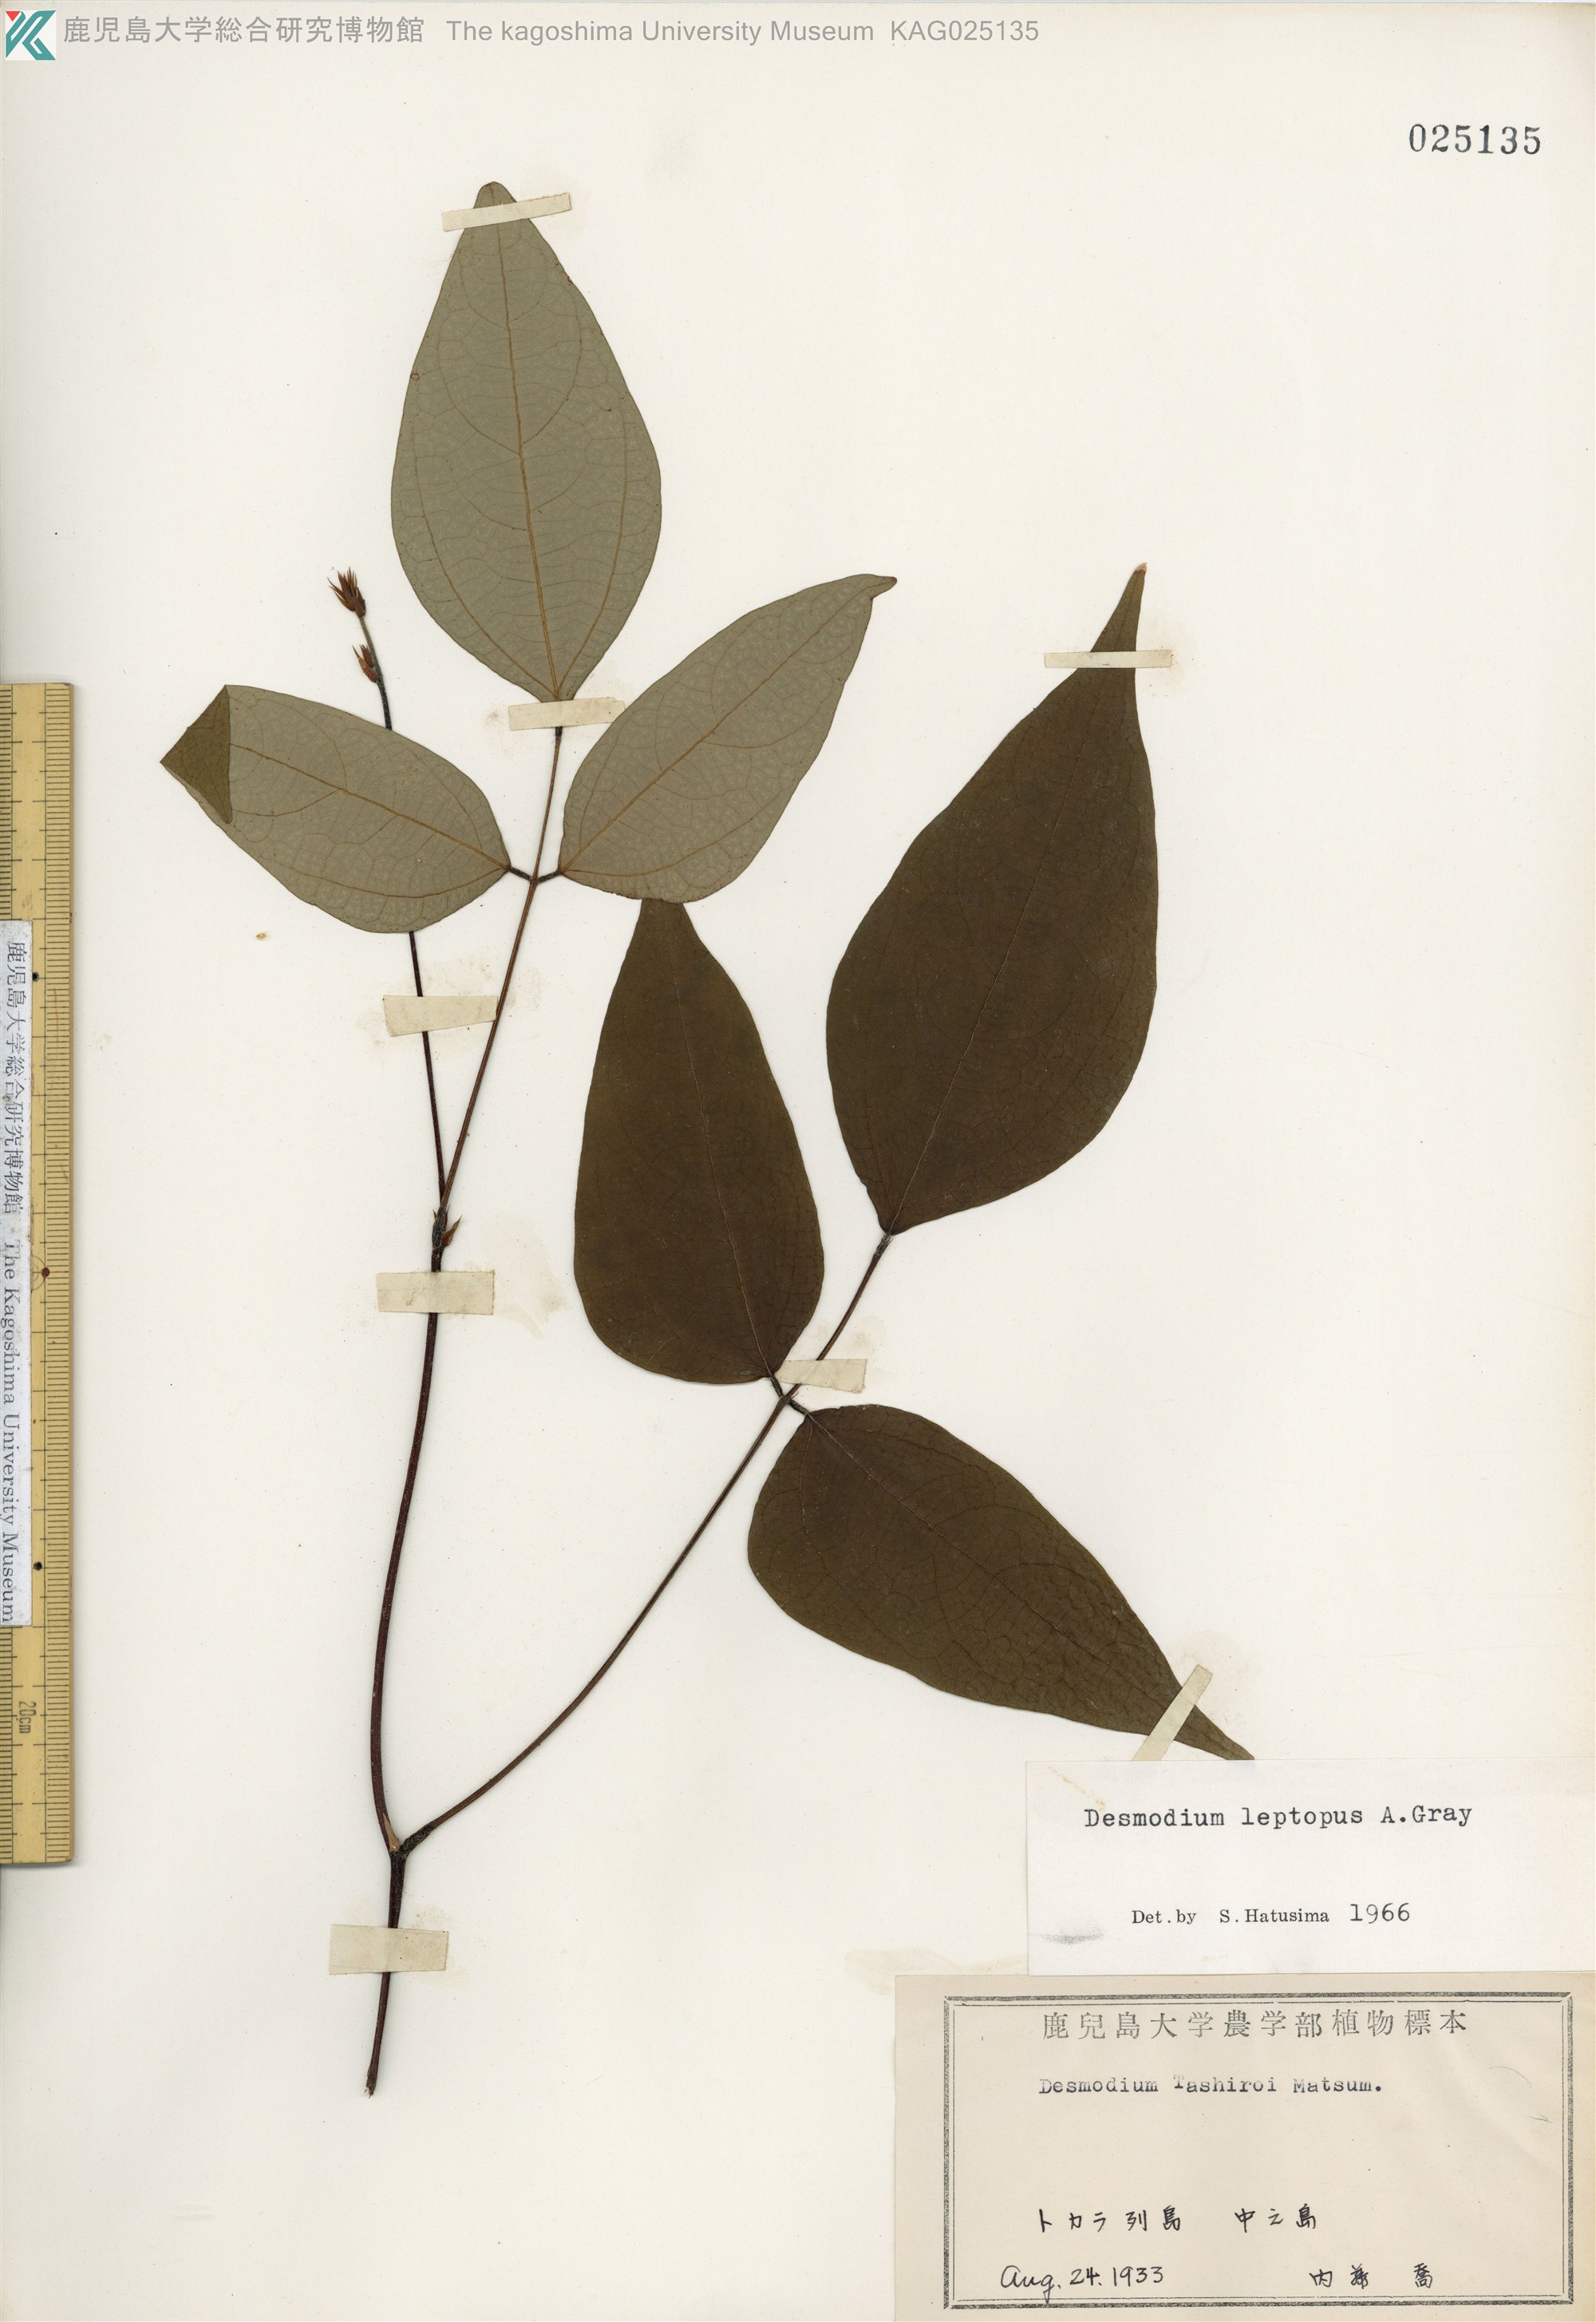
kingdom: Plantae
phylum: Tracheophyta
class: Magnoliopsida
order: Fabales
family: Fabaceae
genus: Hylodesmum
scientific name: Hylodesmum leptopus
